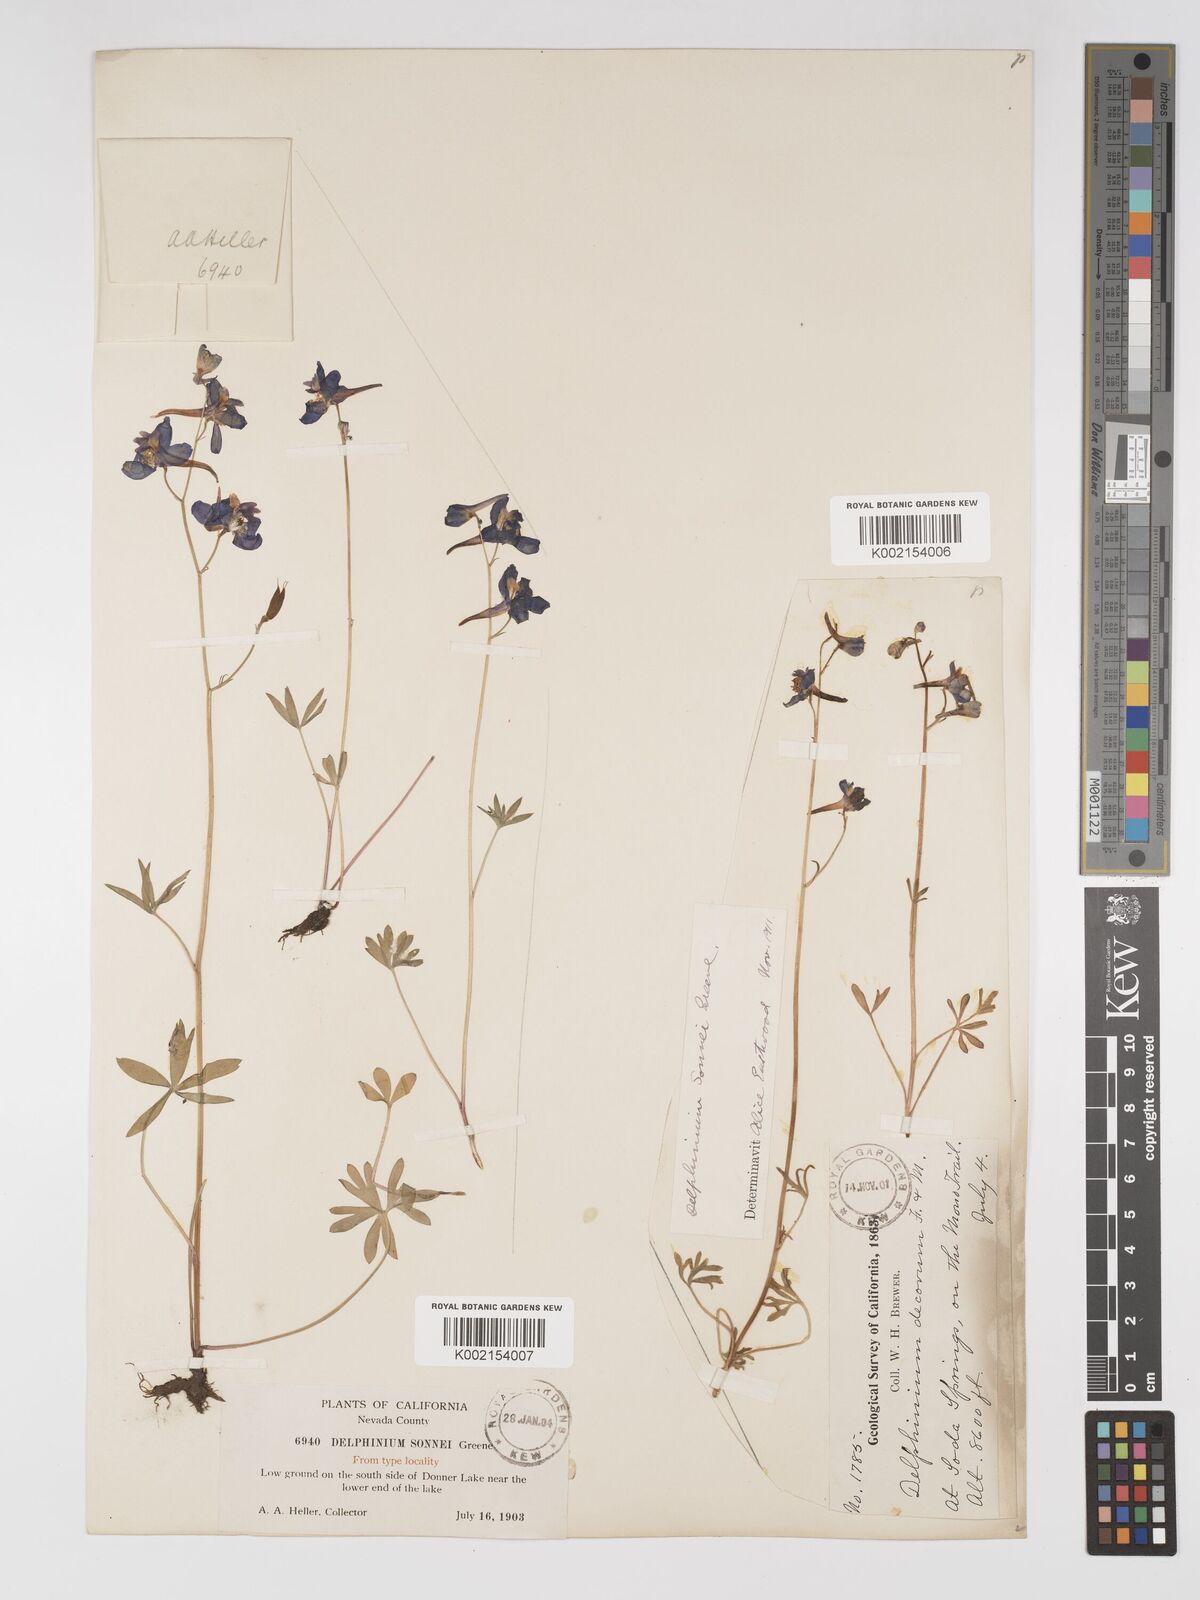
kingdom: Plantae
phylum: Tracheophyta
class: Magnoliopsida
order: Ranunculales
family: Ranunculaceae
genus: Delphinium
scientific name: Delphinium nuttallianum
